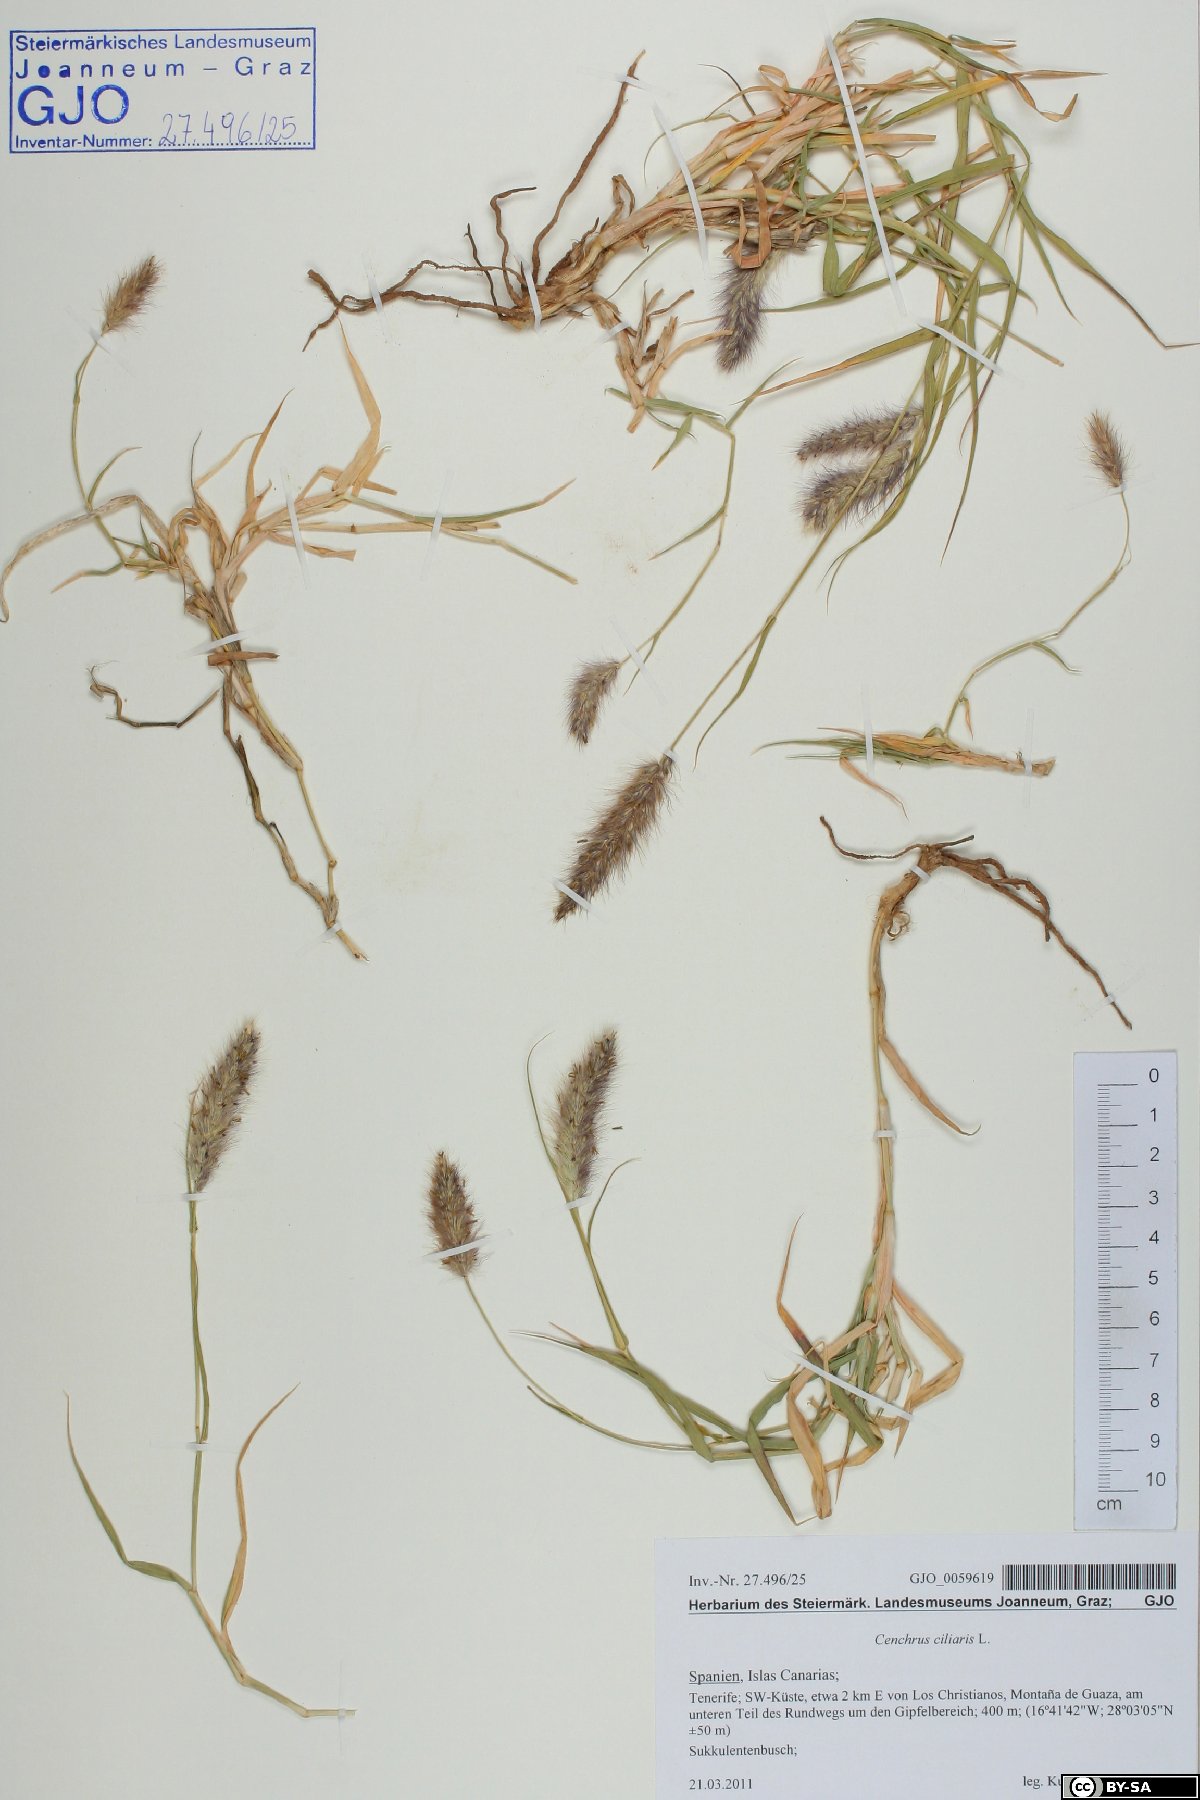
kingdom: Plantae
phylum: Tracheophyta
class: Liliopsida
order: Poales
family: Poaceae
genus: Cenchrus
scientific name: Cenchrus ciliaris
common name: Buffelgrass
